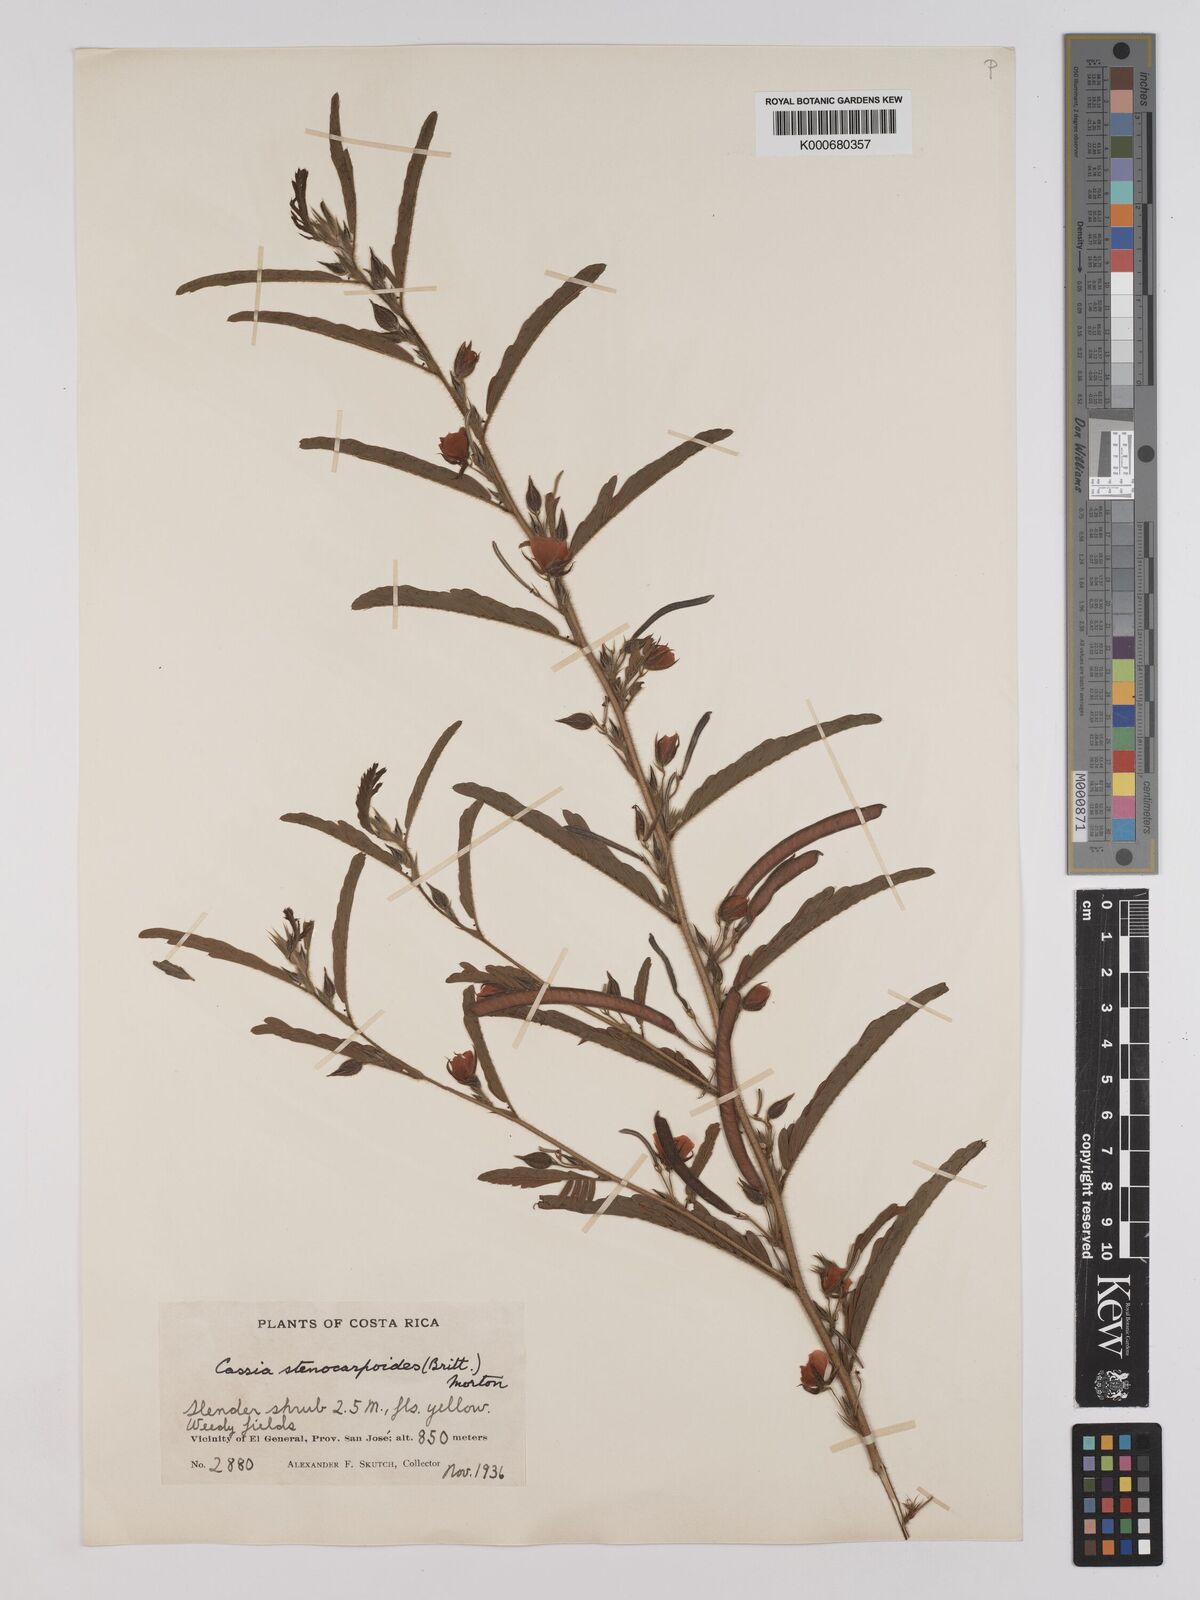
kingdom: Plantae
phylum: Tracheophyta
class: Magnoliopsida
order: Fabales
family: Fabaceae
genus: Chamaecrista
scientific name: Chamaecrista nictitans
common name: Sensitive cassia
